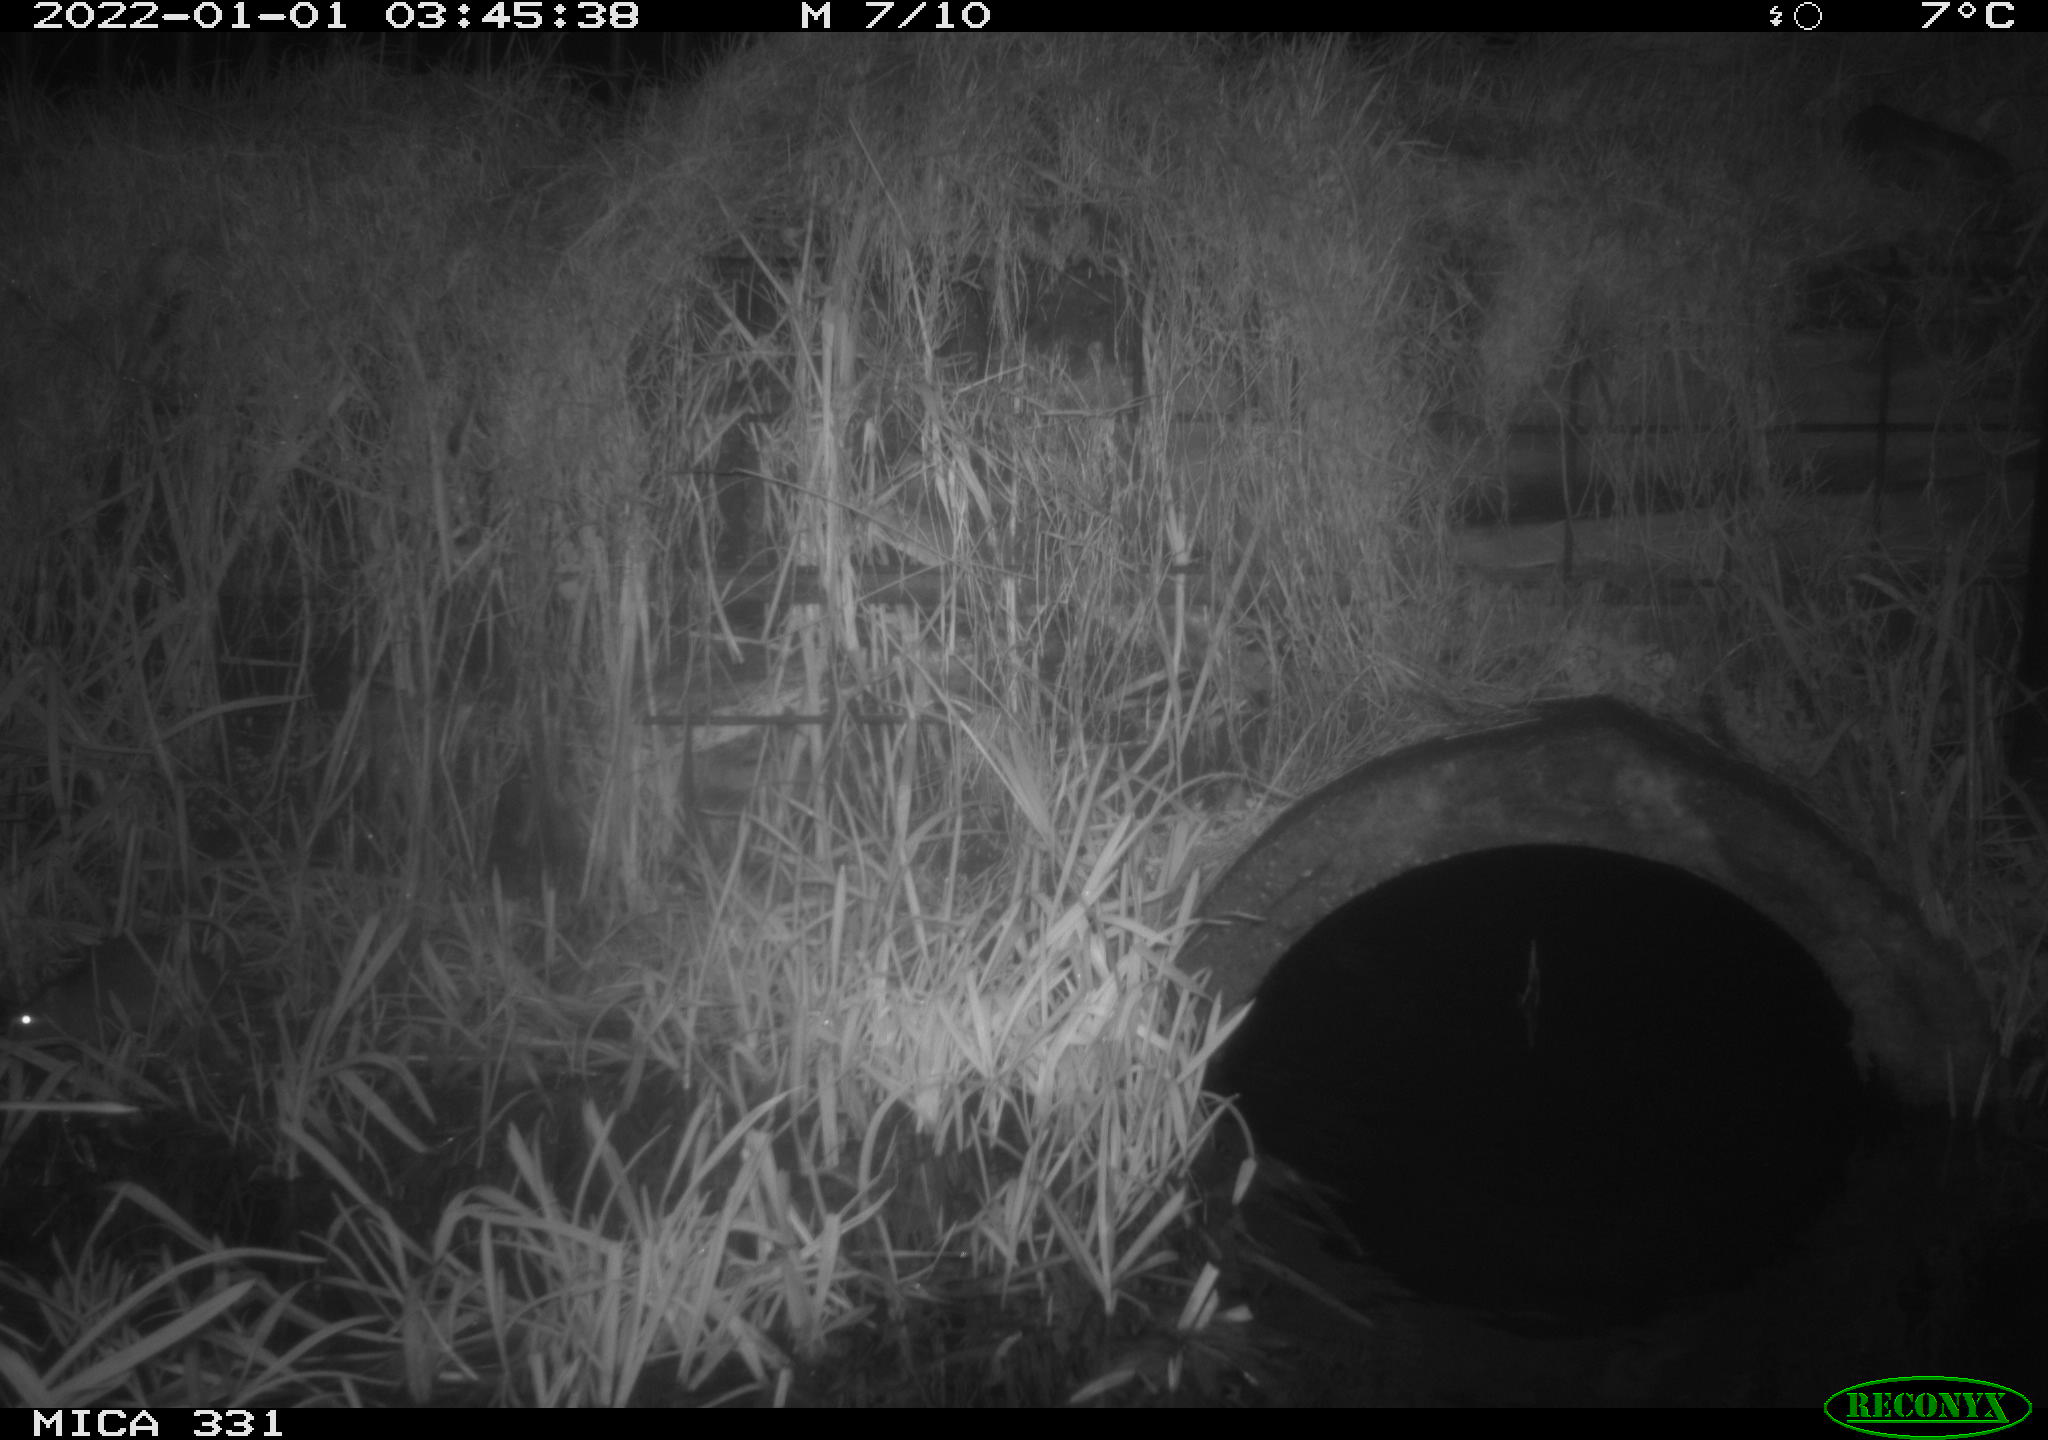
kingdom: Animalia
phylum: Chordata
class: Mammalia
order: Rodentia
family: Muridae
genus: Rattus
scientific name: Rattus norvegicus
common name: Brown rat
